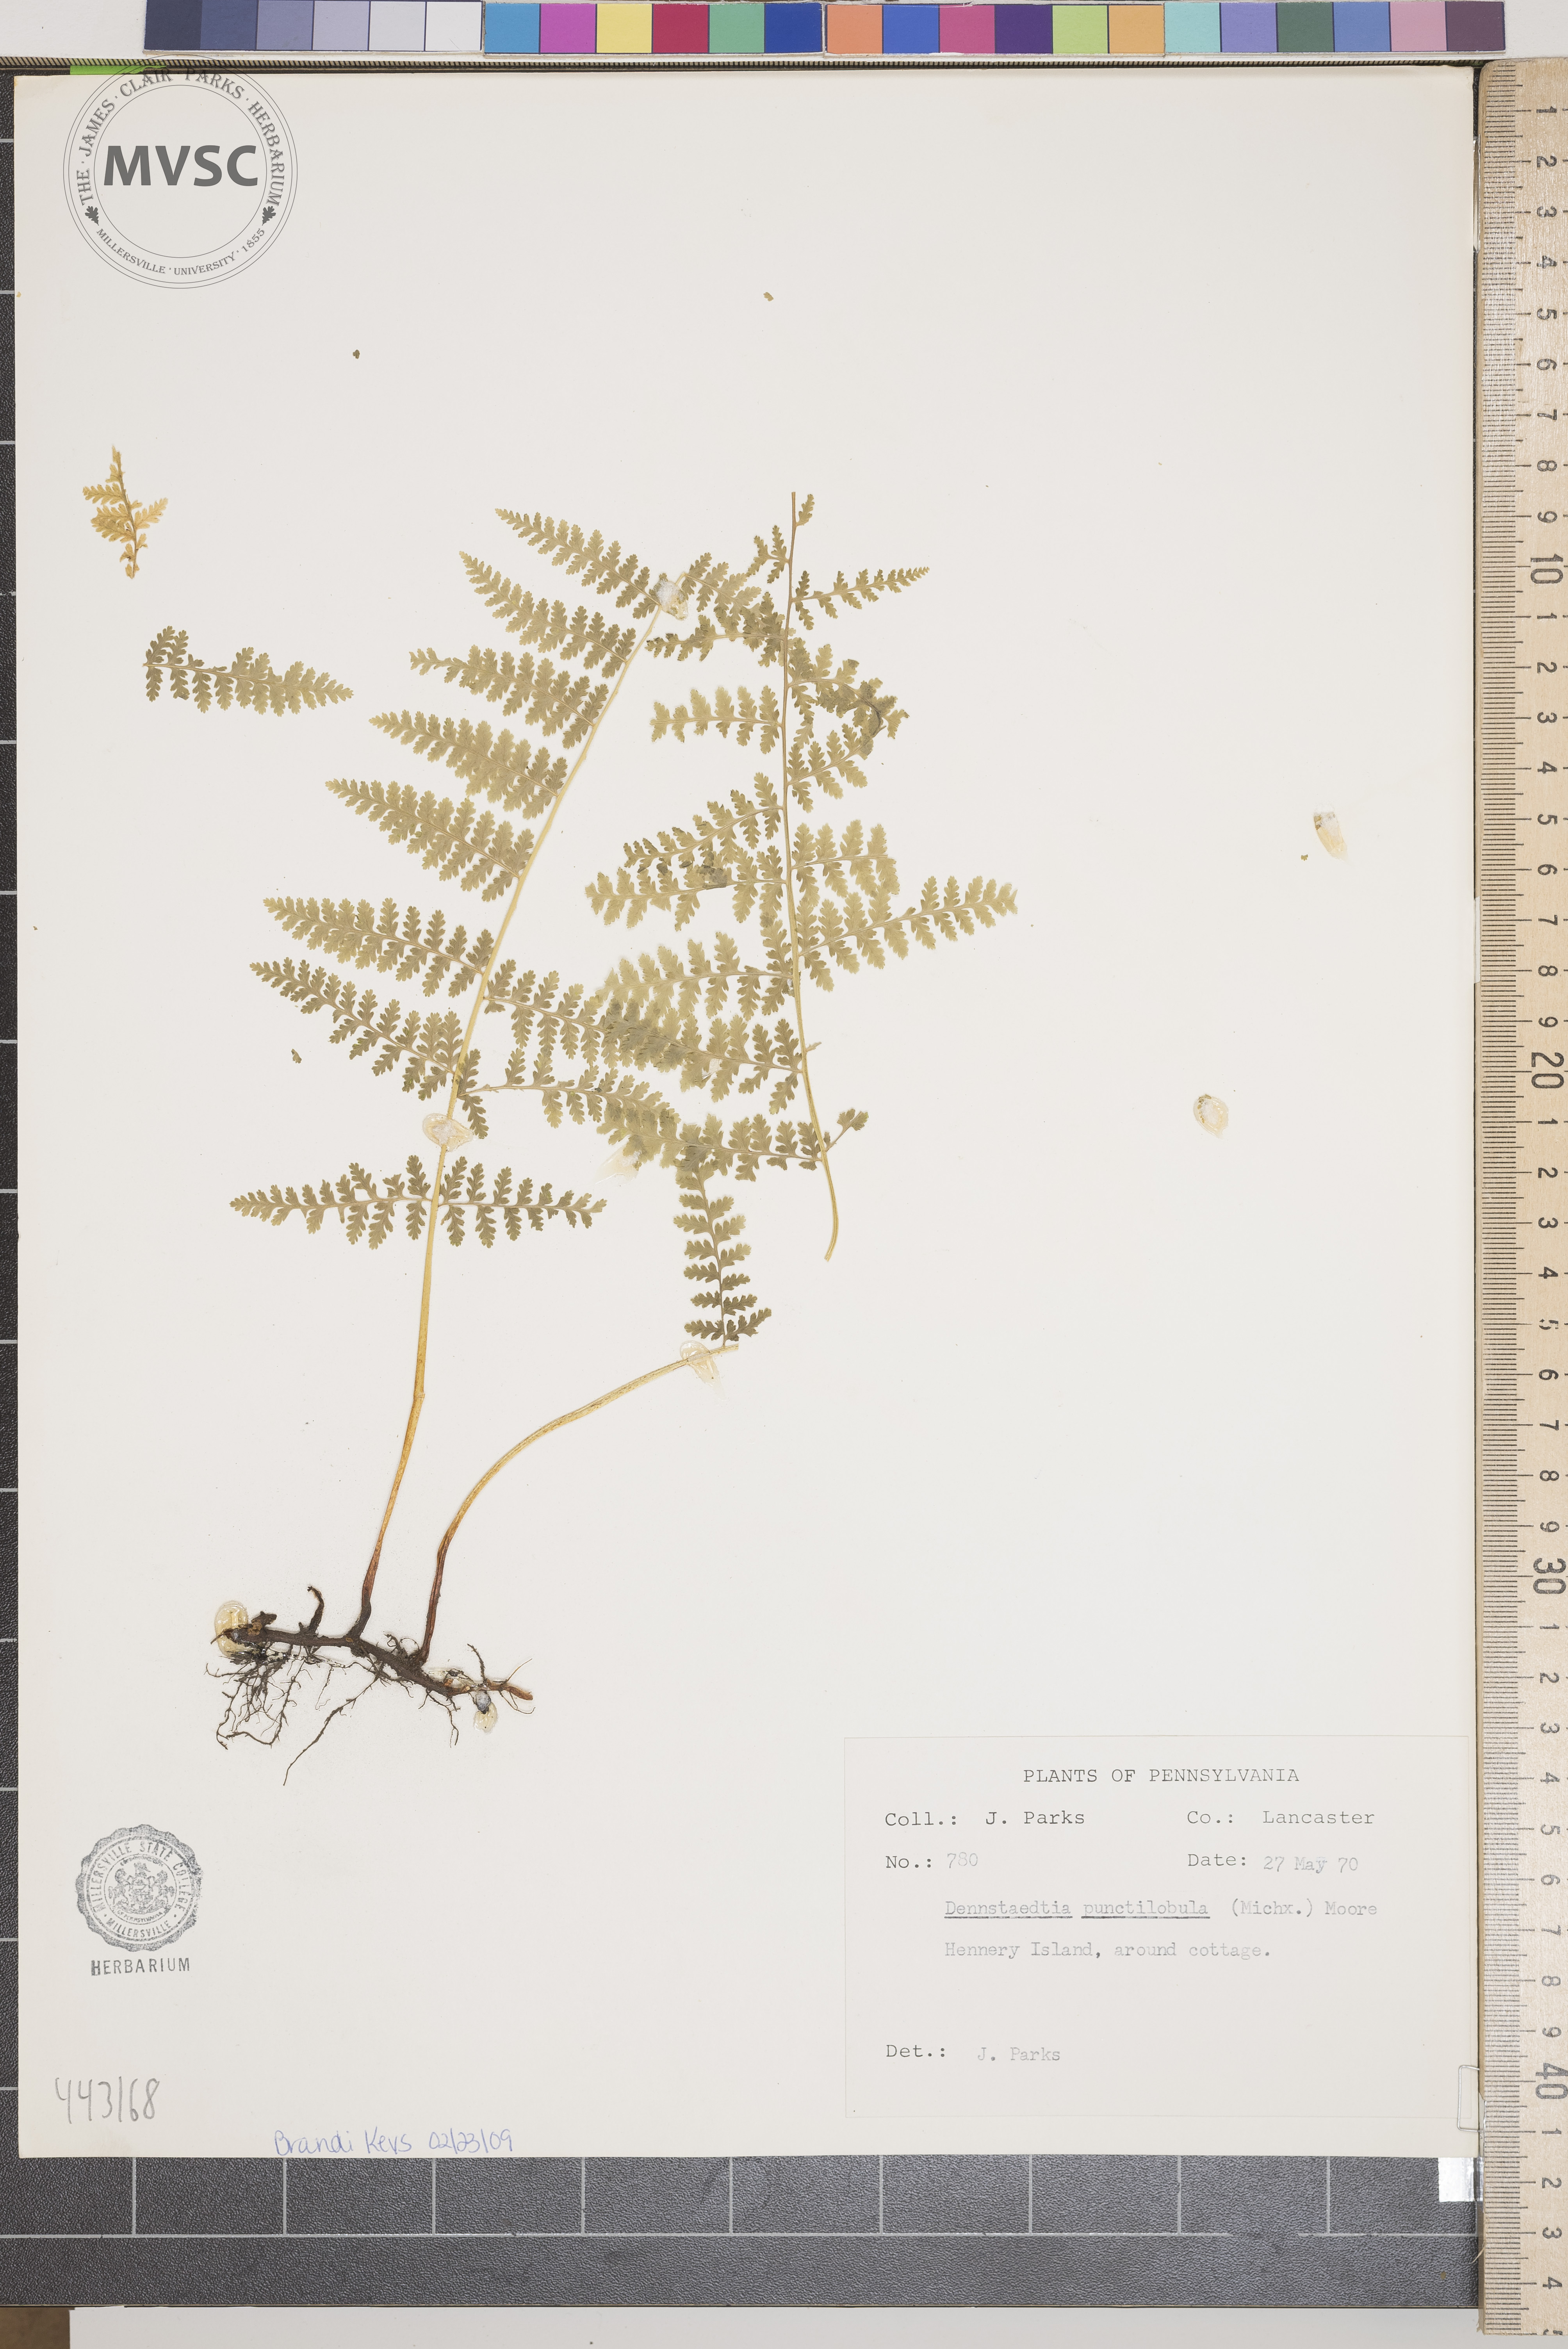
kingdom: Plantae
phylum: Tracheophyta
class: Polypodiopsida
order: Polypodiales
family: Dennstaedtiaceae
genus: Sitobolium
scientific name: Sitobolium punctilobum
